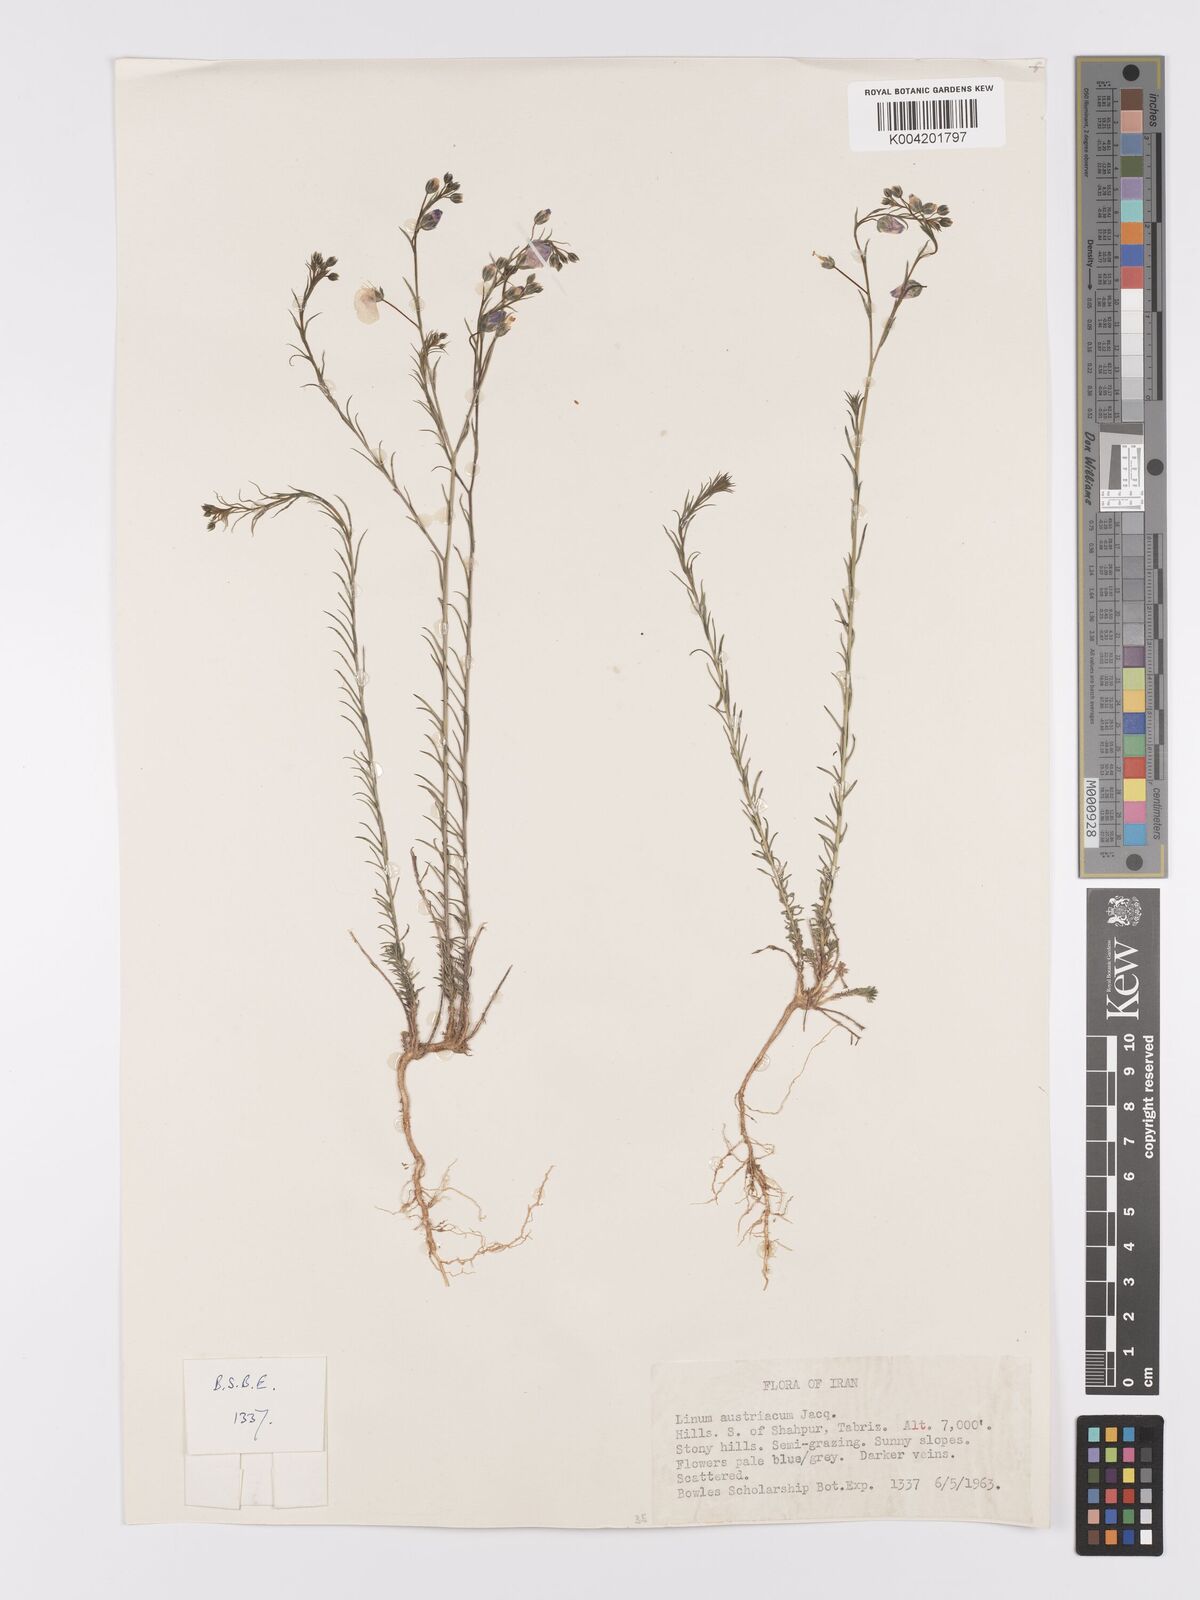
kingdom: Plantae
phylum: Tracheophyta
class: Magnoliopsida
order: Malpighiales
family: Linaceae
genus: Linum
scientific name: Linum
